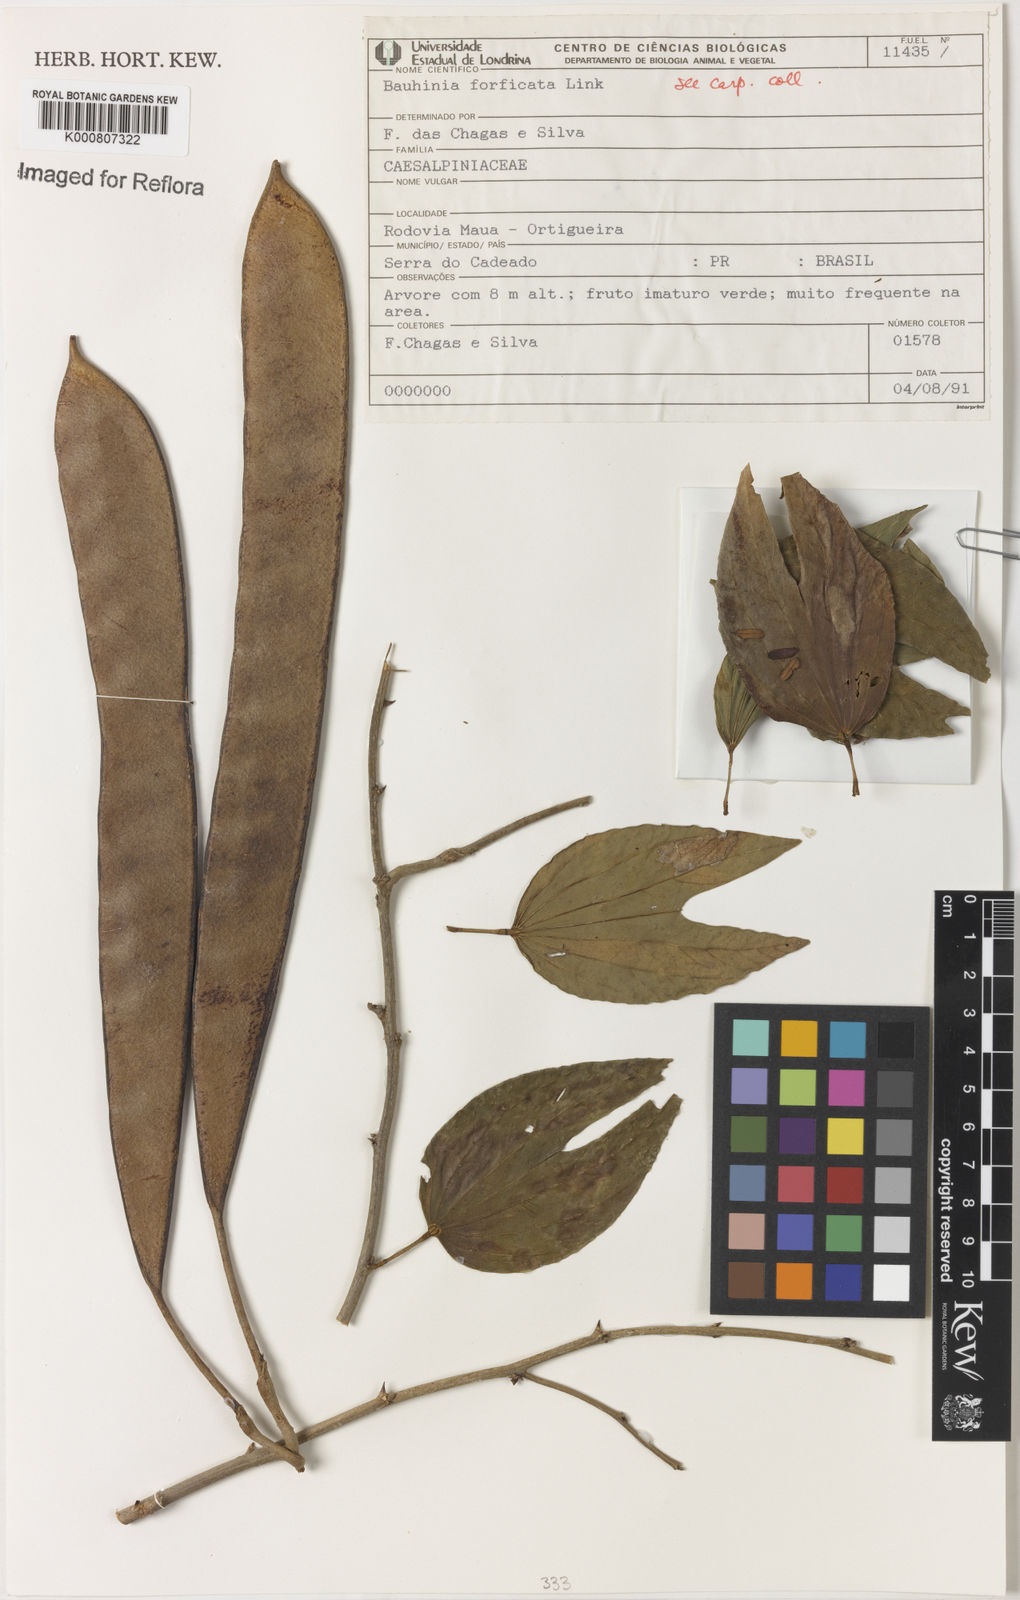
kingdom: Plantae
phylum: Tracheophyta
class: Magnoliopsida
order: Fabales
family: Fabaceae
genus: Bauhinia
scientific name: Bauhinia forficata
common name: Orchid tree
